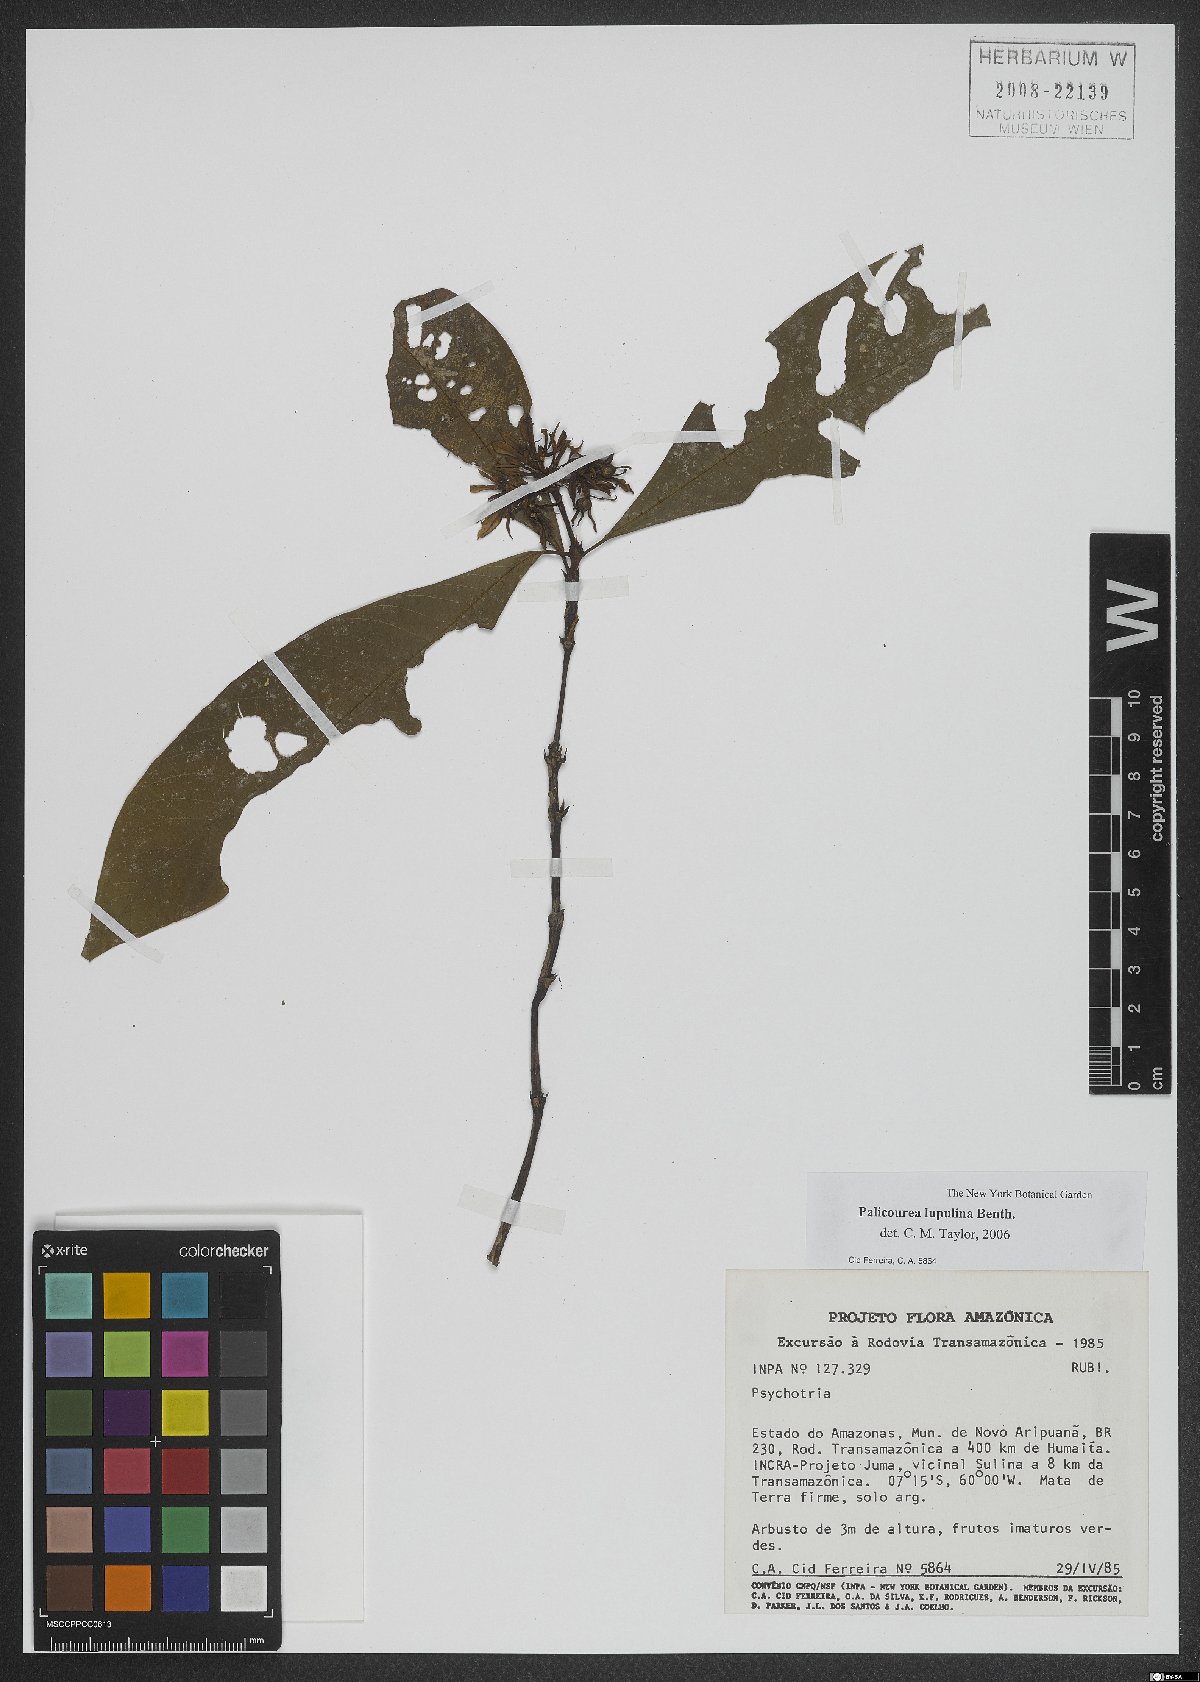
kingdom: Plantae
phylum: Tracheophyta
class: Magnoliopsida
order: Gentianales
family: Rubiaceae
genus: Palicourea
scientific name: Palicourea justiciifolia
